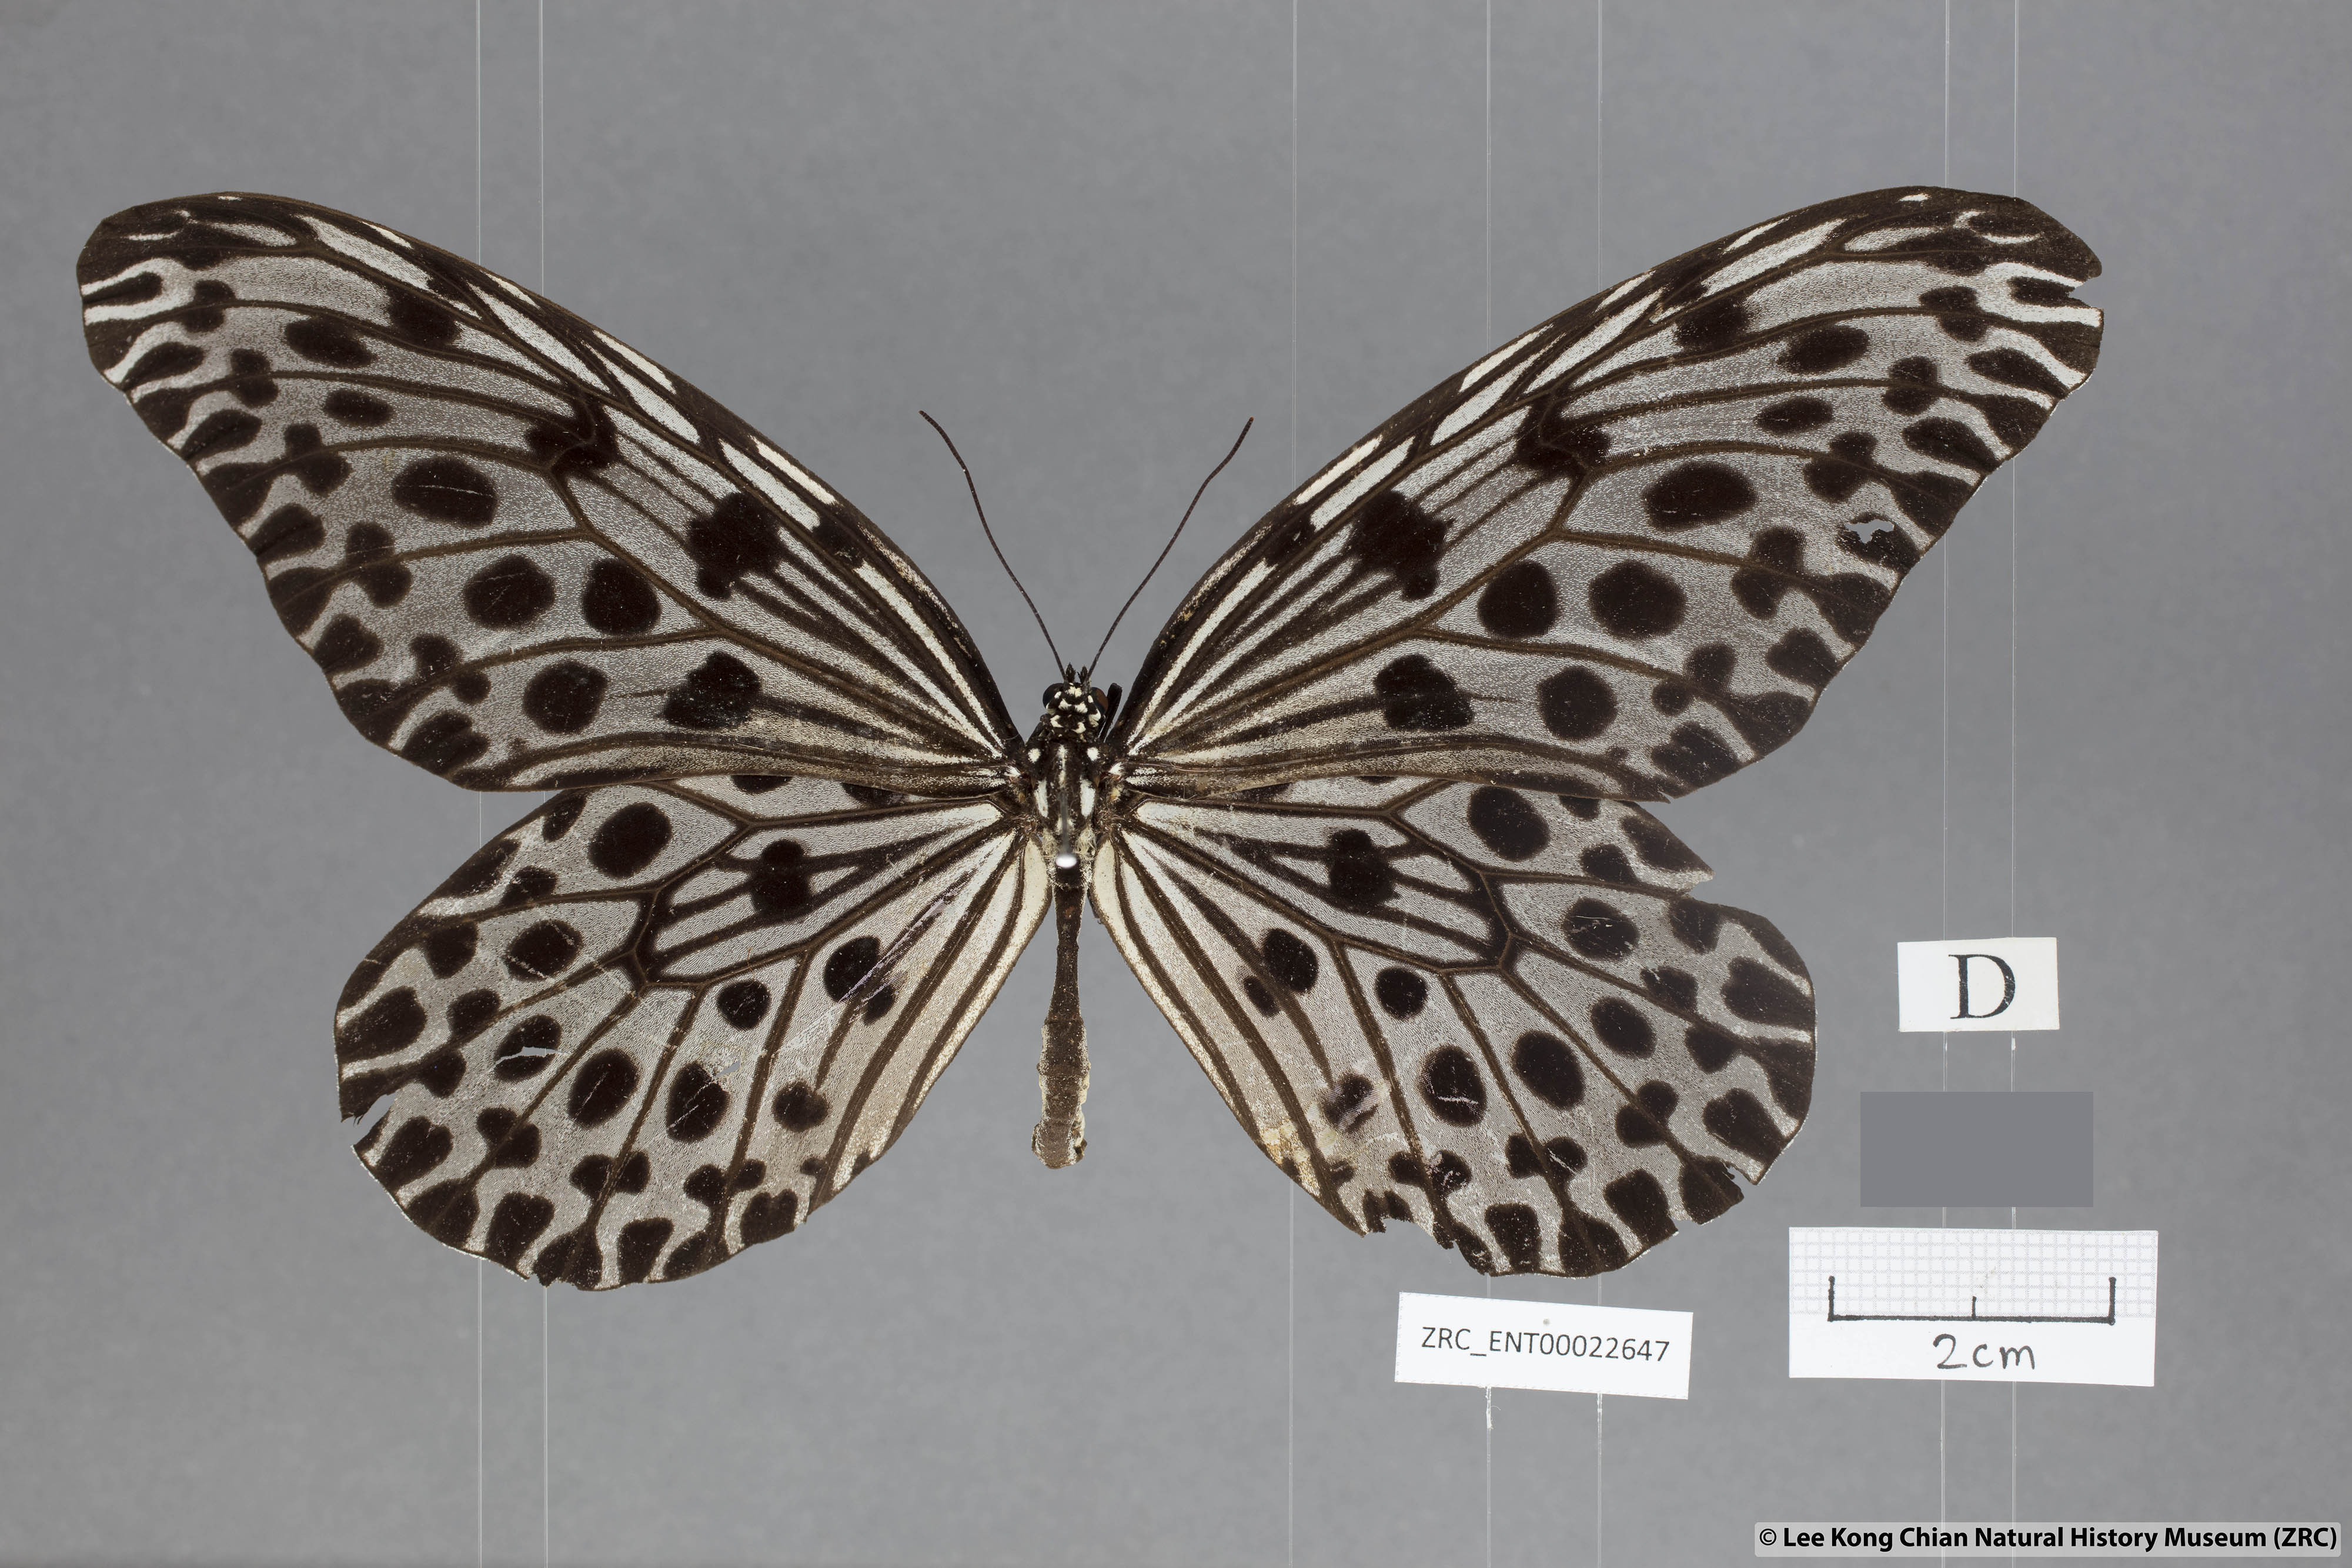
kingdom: Animalia
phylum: Arthropoda
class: Insecta
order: Lepidoptera
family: Nymphalidae
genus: Idea
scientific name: Idea lynceus
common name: Giant tree nymph
